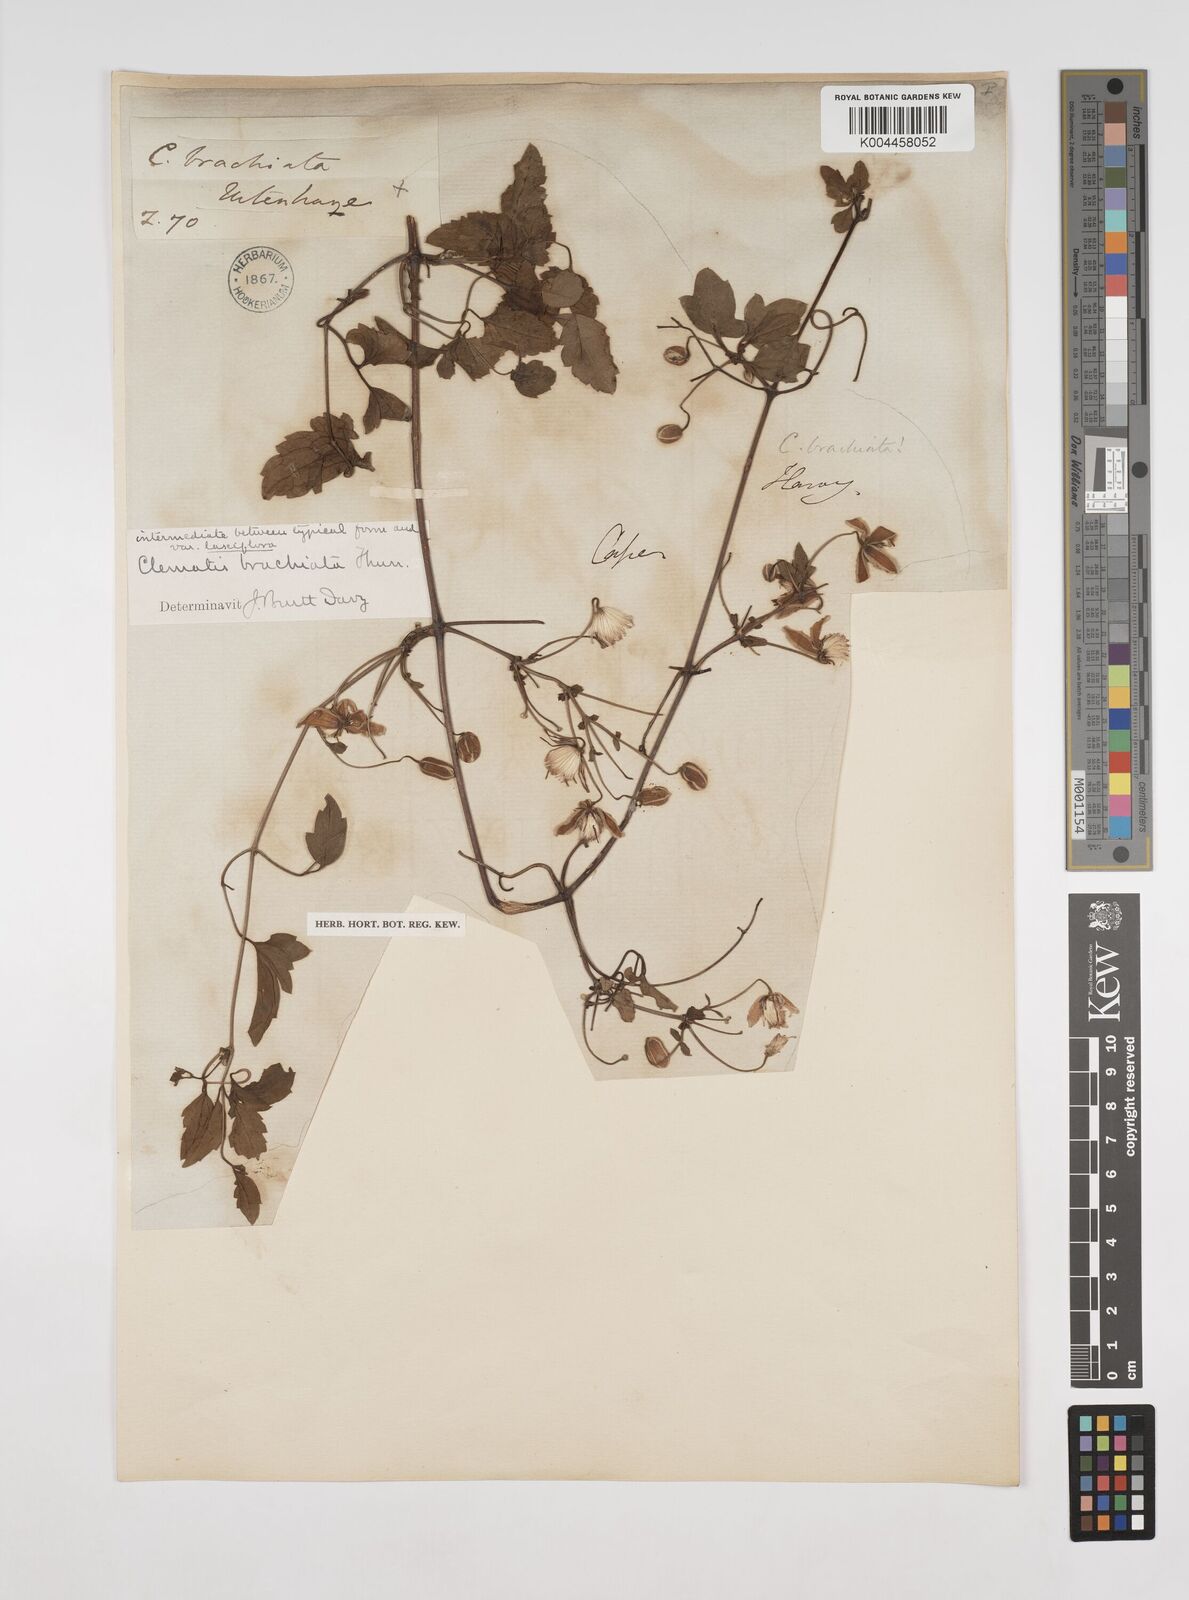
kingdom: Plantae
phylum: Tracheophyta
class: Magnoliopsida
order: Ranunculales
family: Ranunculaceae
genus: Clematis
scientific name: Clematis brachiata
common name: Traveler's-joy
